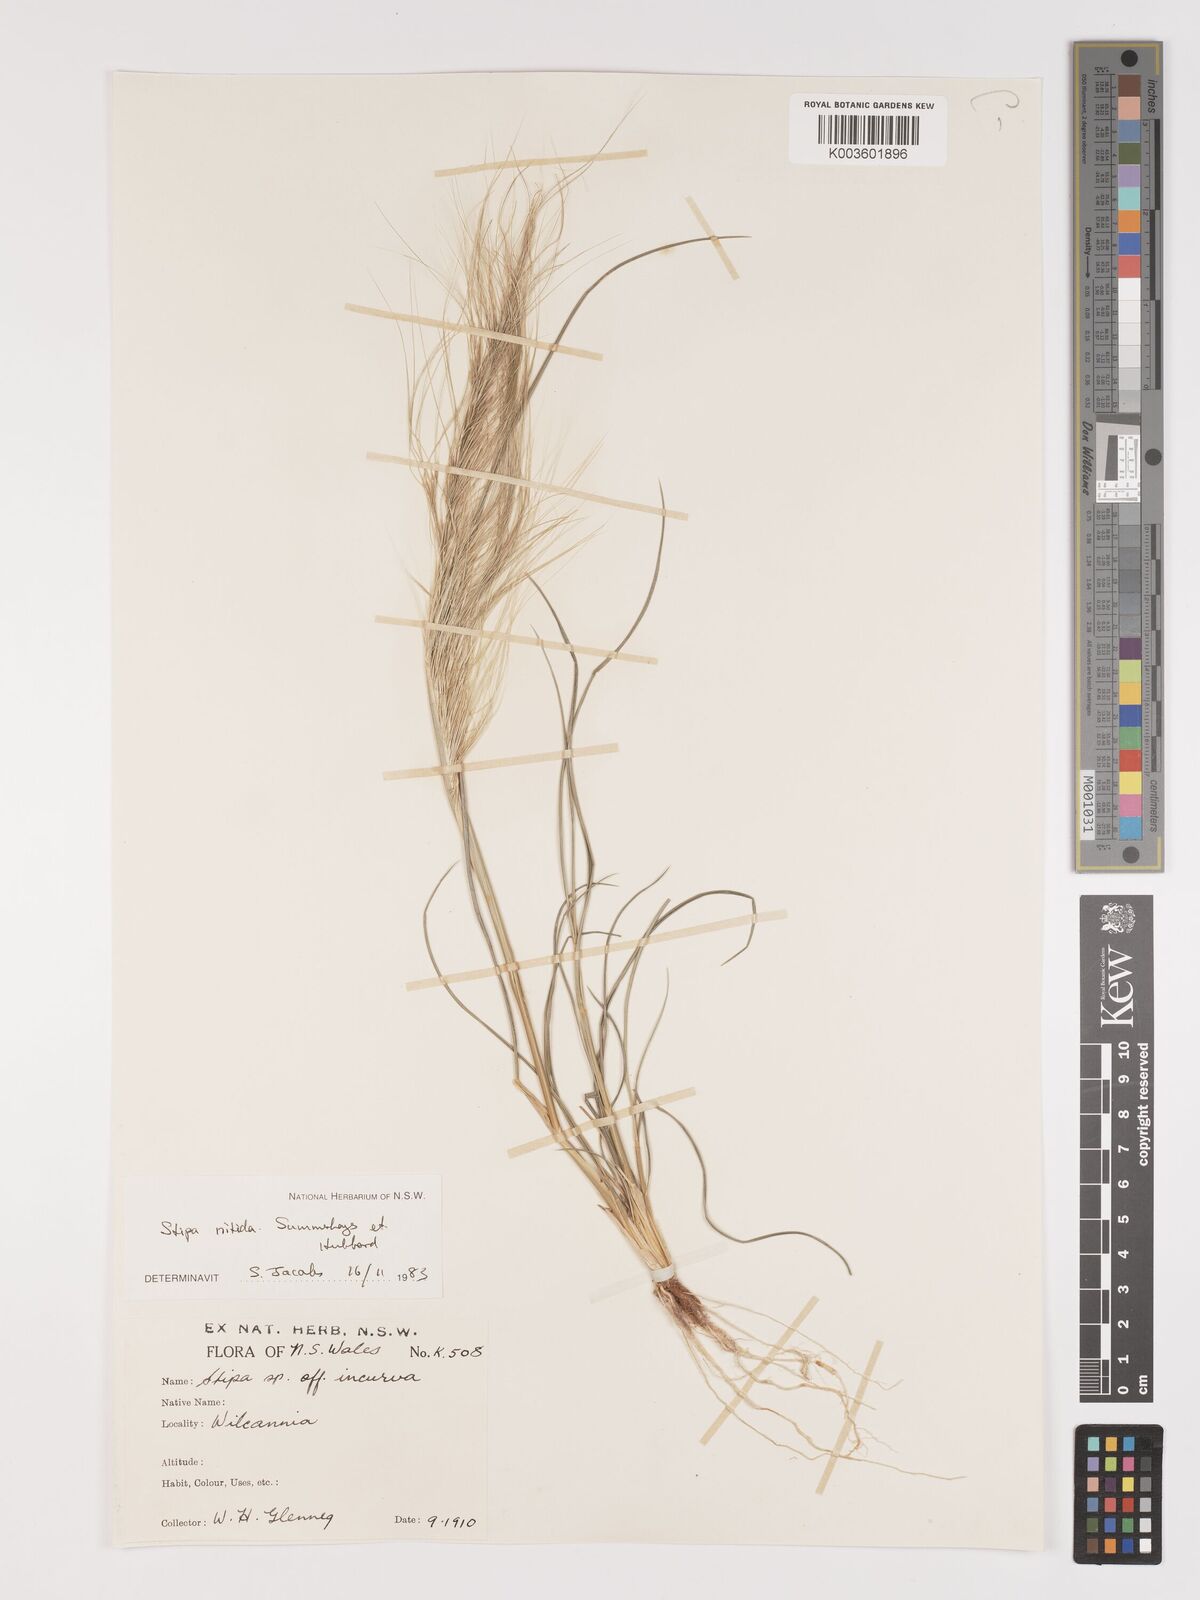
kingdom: Plantae
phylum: Tracheophyta
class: Liliopsida
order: Poales
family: Poaceae
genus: Austrostipa
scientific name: Austrostipa nitida
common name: Balcarra grass
